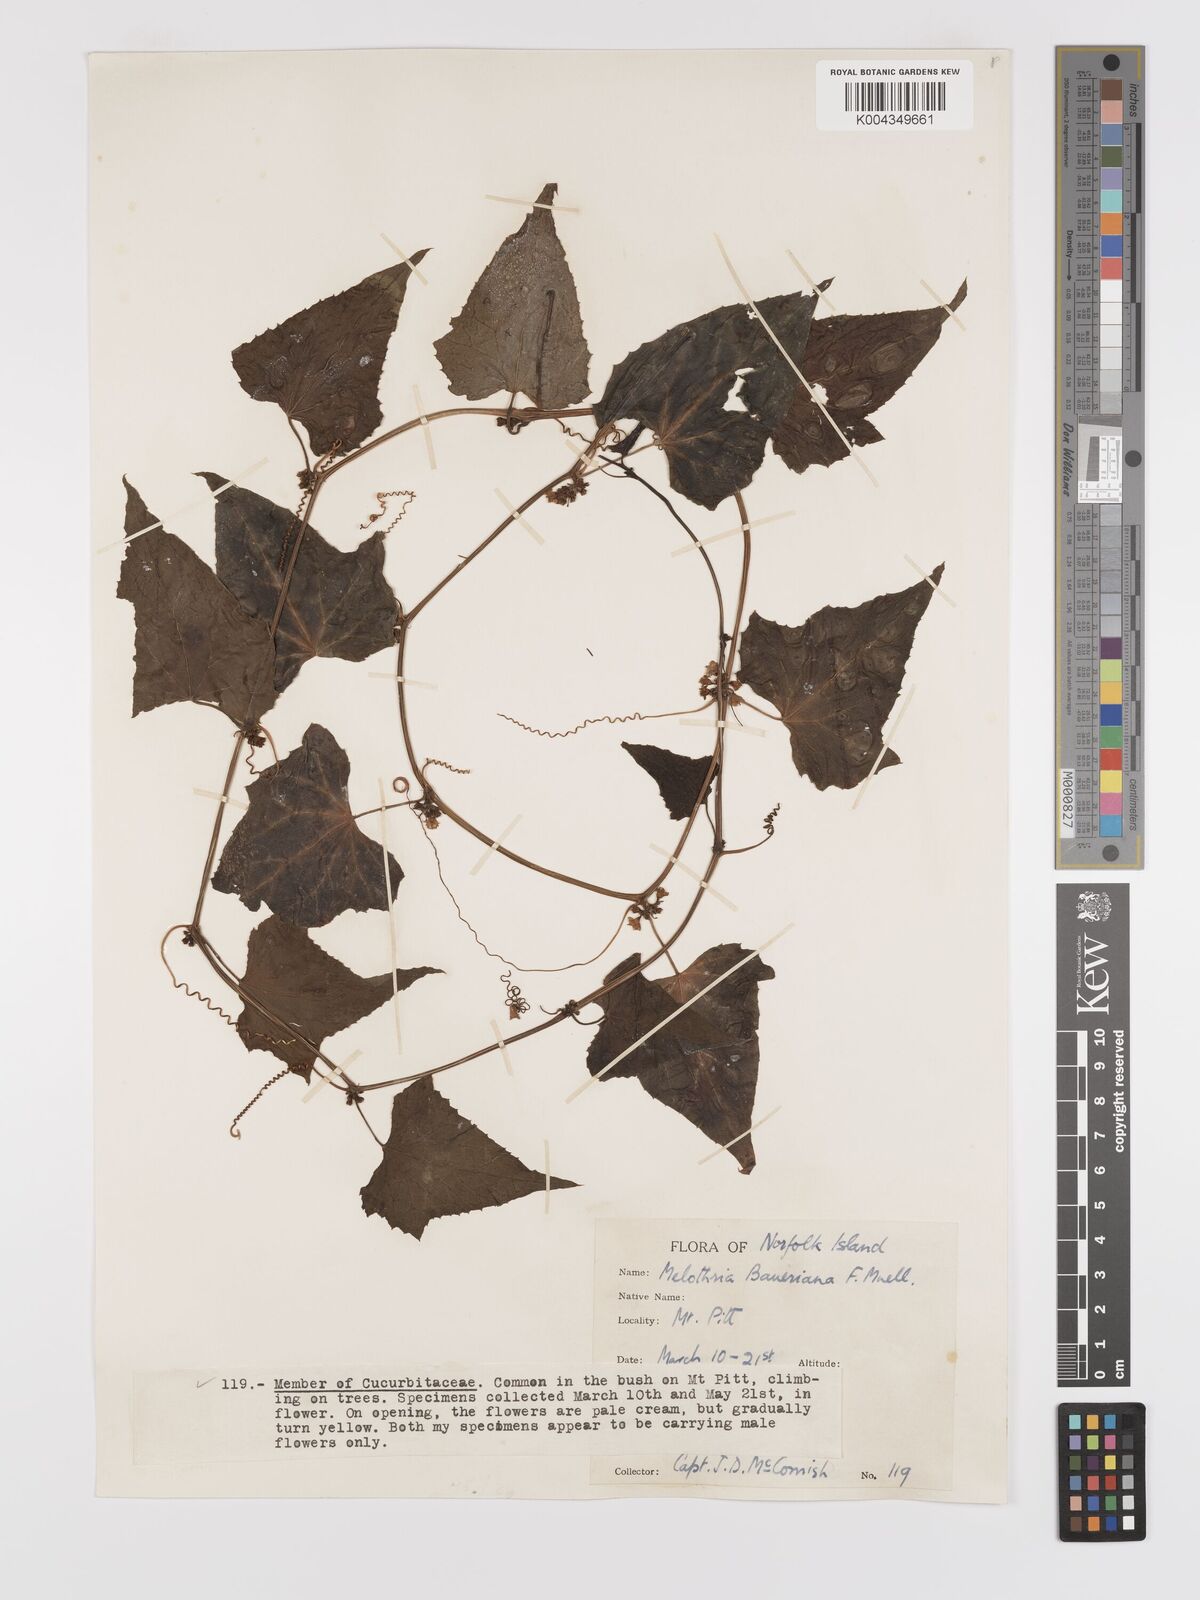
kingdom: Plantae
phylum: Tracheophyta
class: Magnoliopsida
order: Cucurbitales
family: Cucurbitaceae
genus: Zehneria
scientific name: Zehneria mucronata
